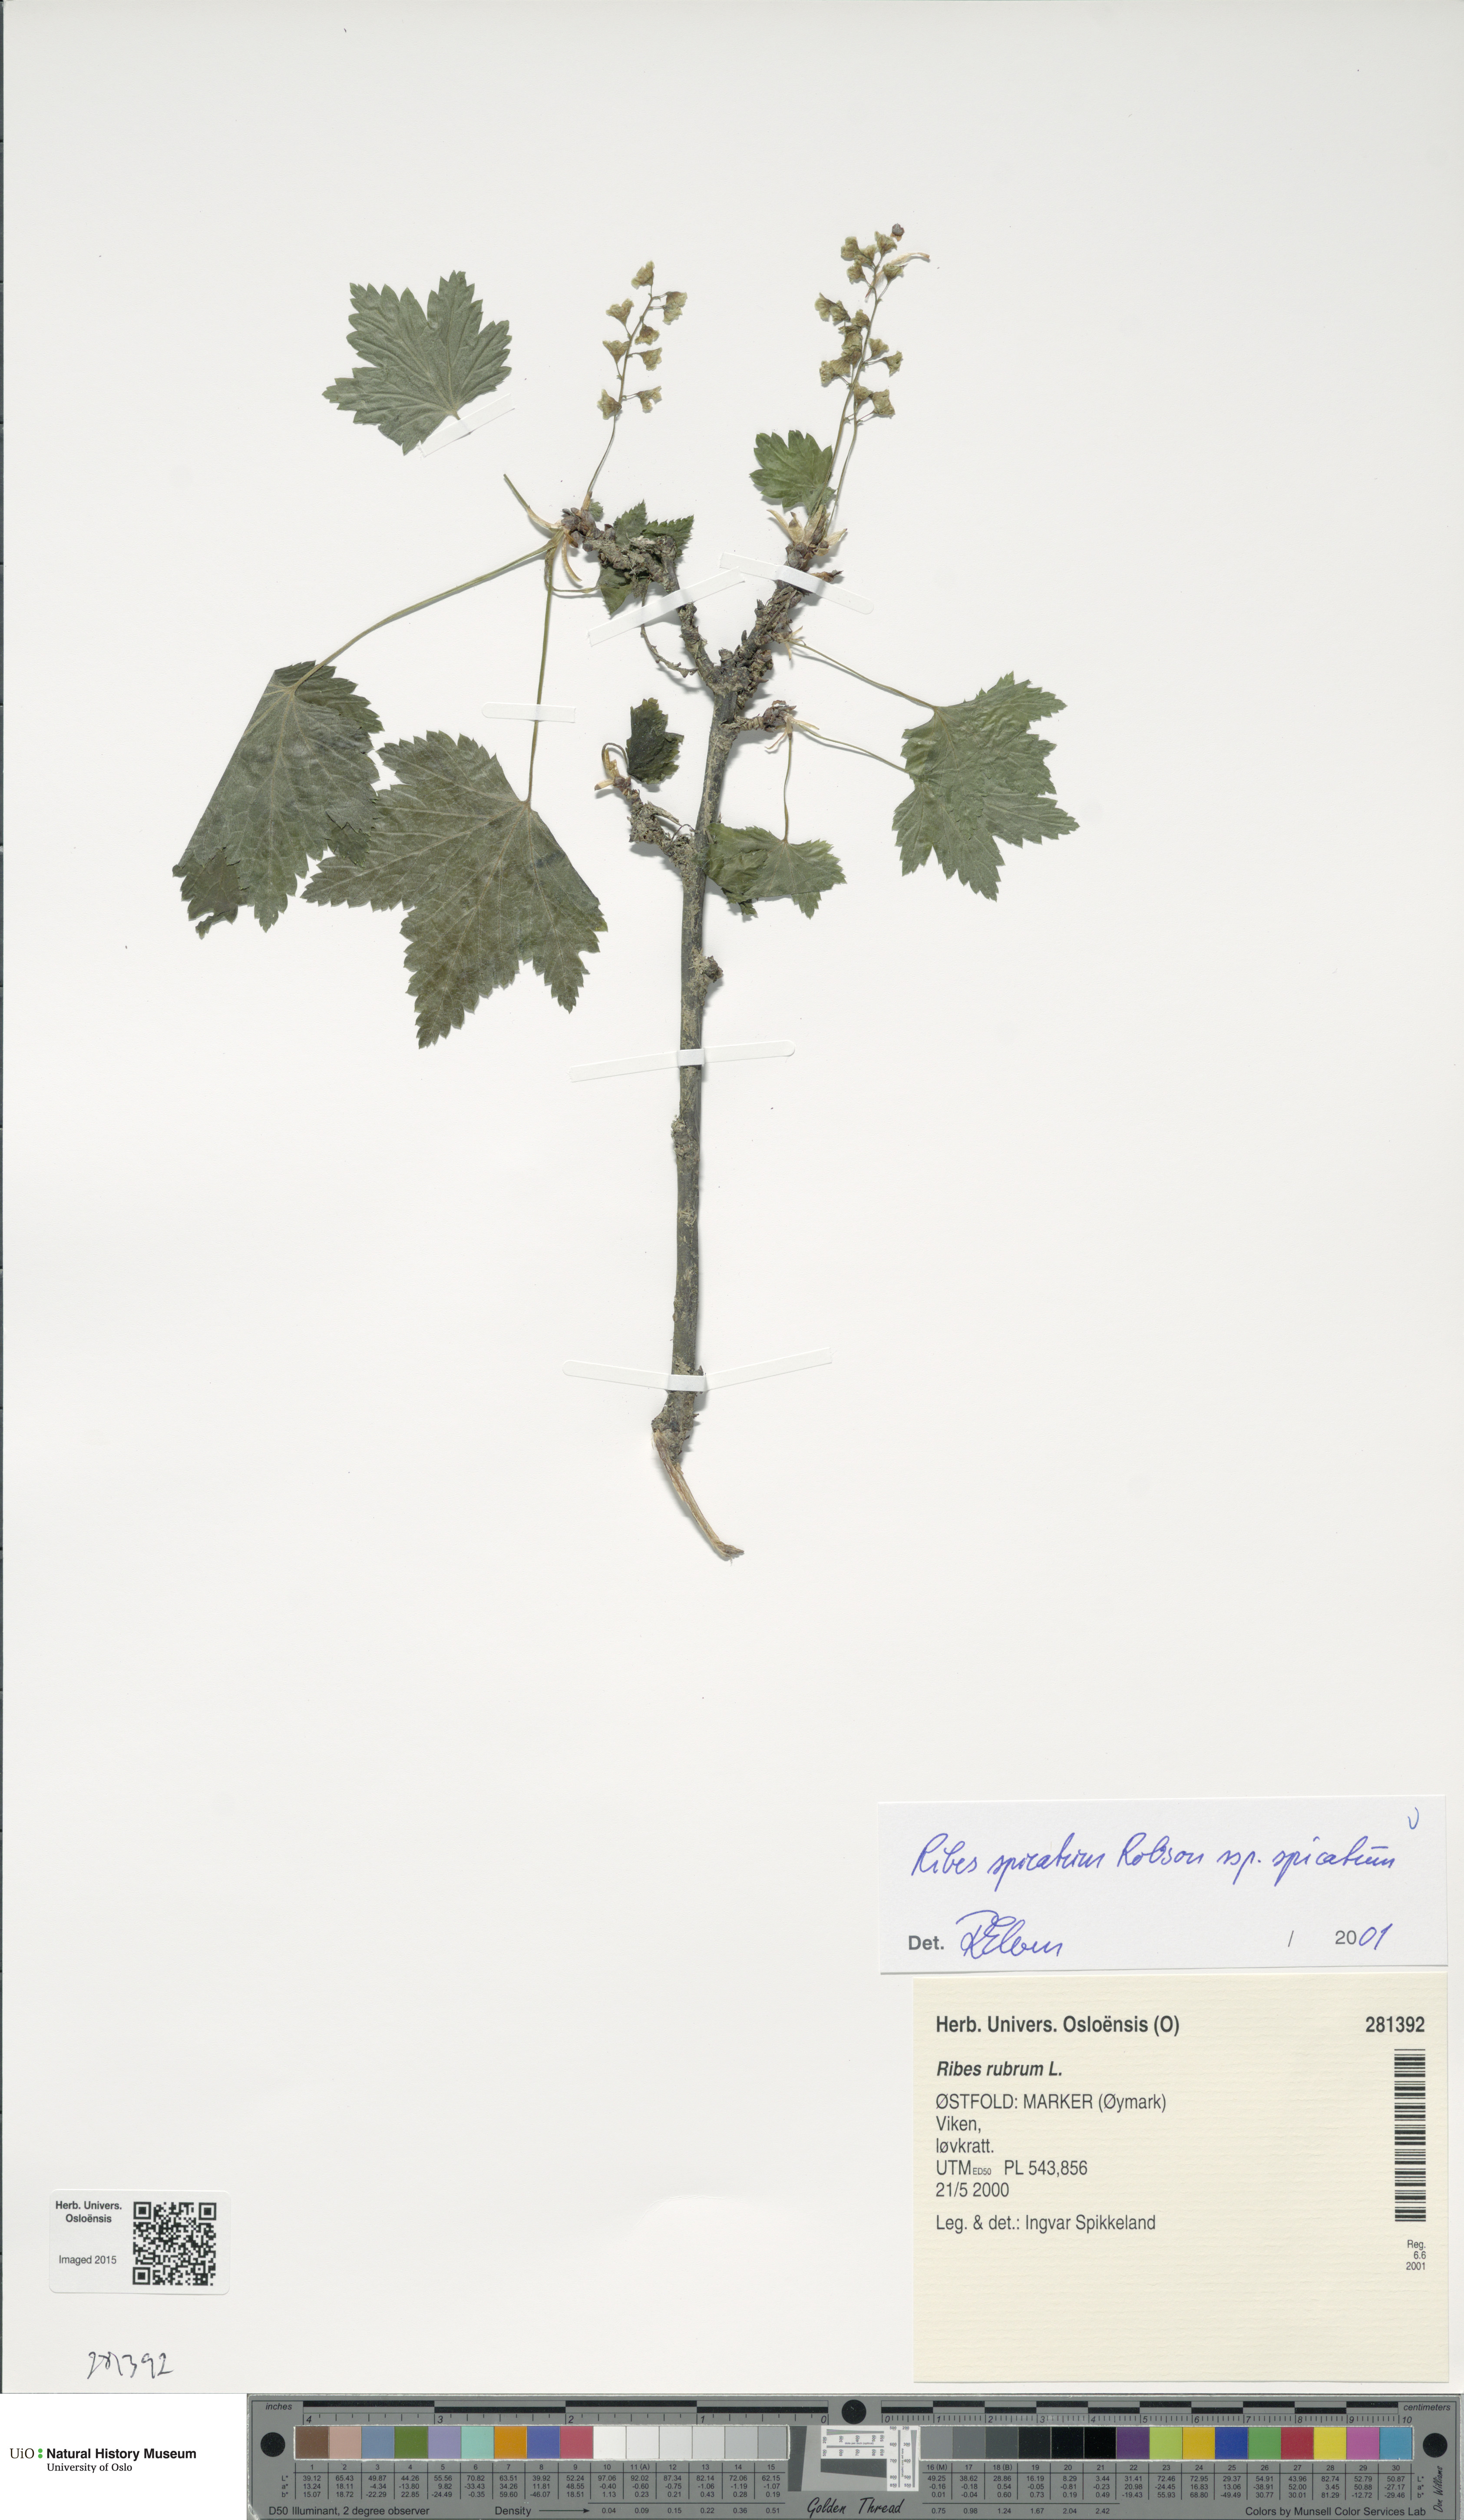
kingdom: Plantae
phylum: Tracheophyta
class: Magnoliopsida
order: Saxifragales
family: Grossulariaceae
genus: Ribes
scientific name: Ribes spicatum
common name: Downy currant
